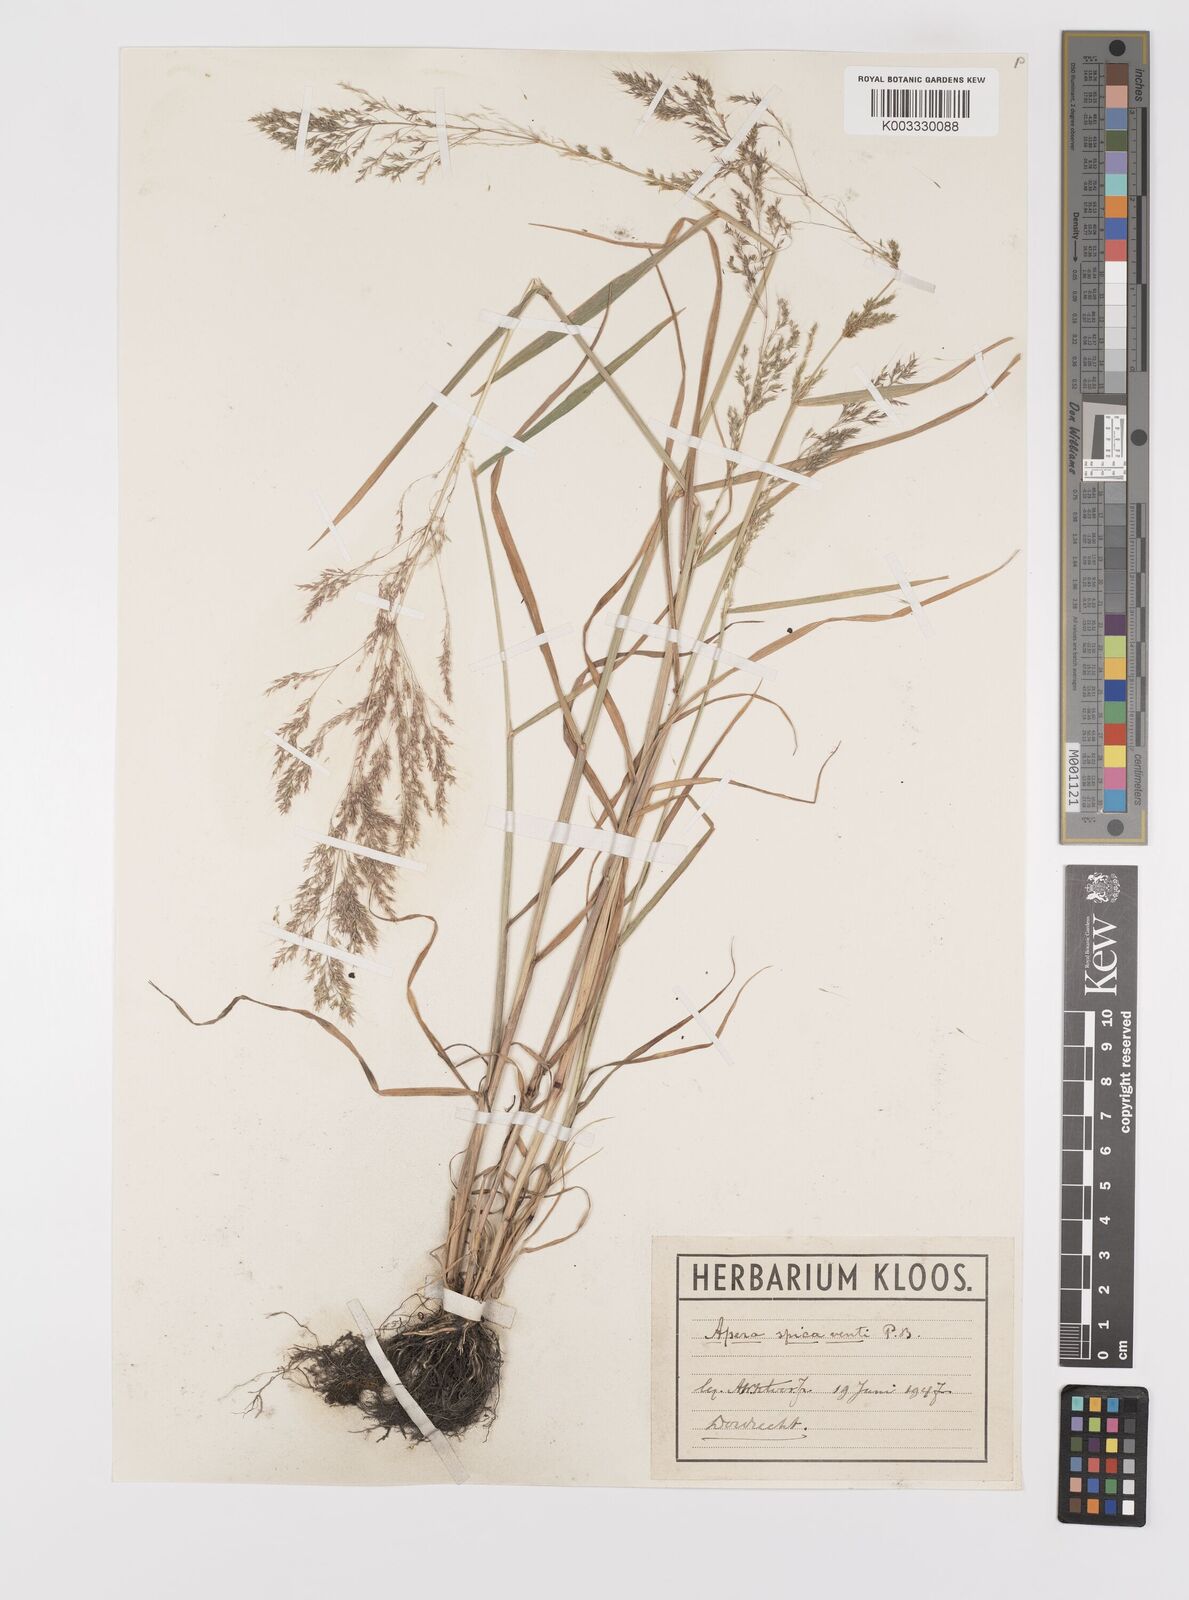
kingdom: Plantae
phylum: Tracheophyta
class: Liliopsida
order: Poales
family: Poaceae
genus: Apera
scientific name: Apera spica-venti
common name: Loose silky-bent
